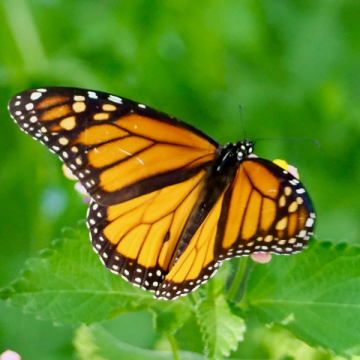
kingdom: Animalia
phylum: Arthropoda
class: Insecta
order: Lepidoptera
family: Nymphalidae
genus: Danaus
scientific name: Danaus plexippus
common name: Monarch
